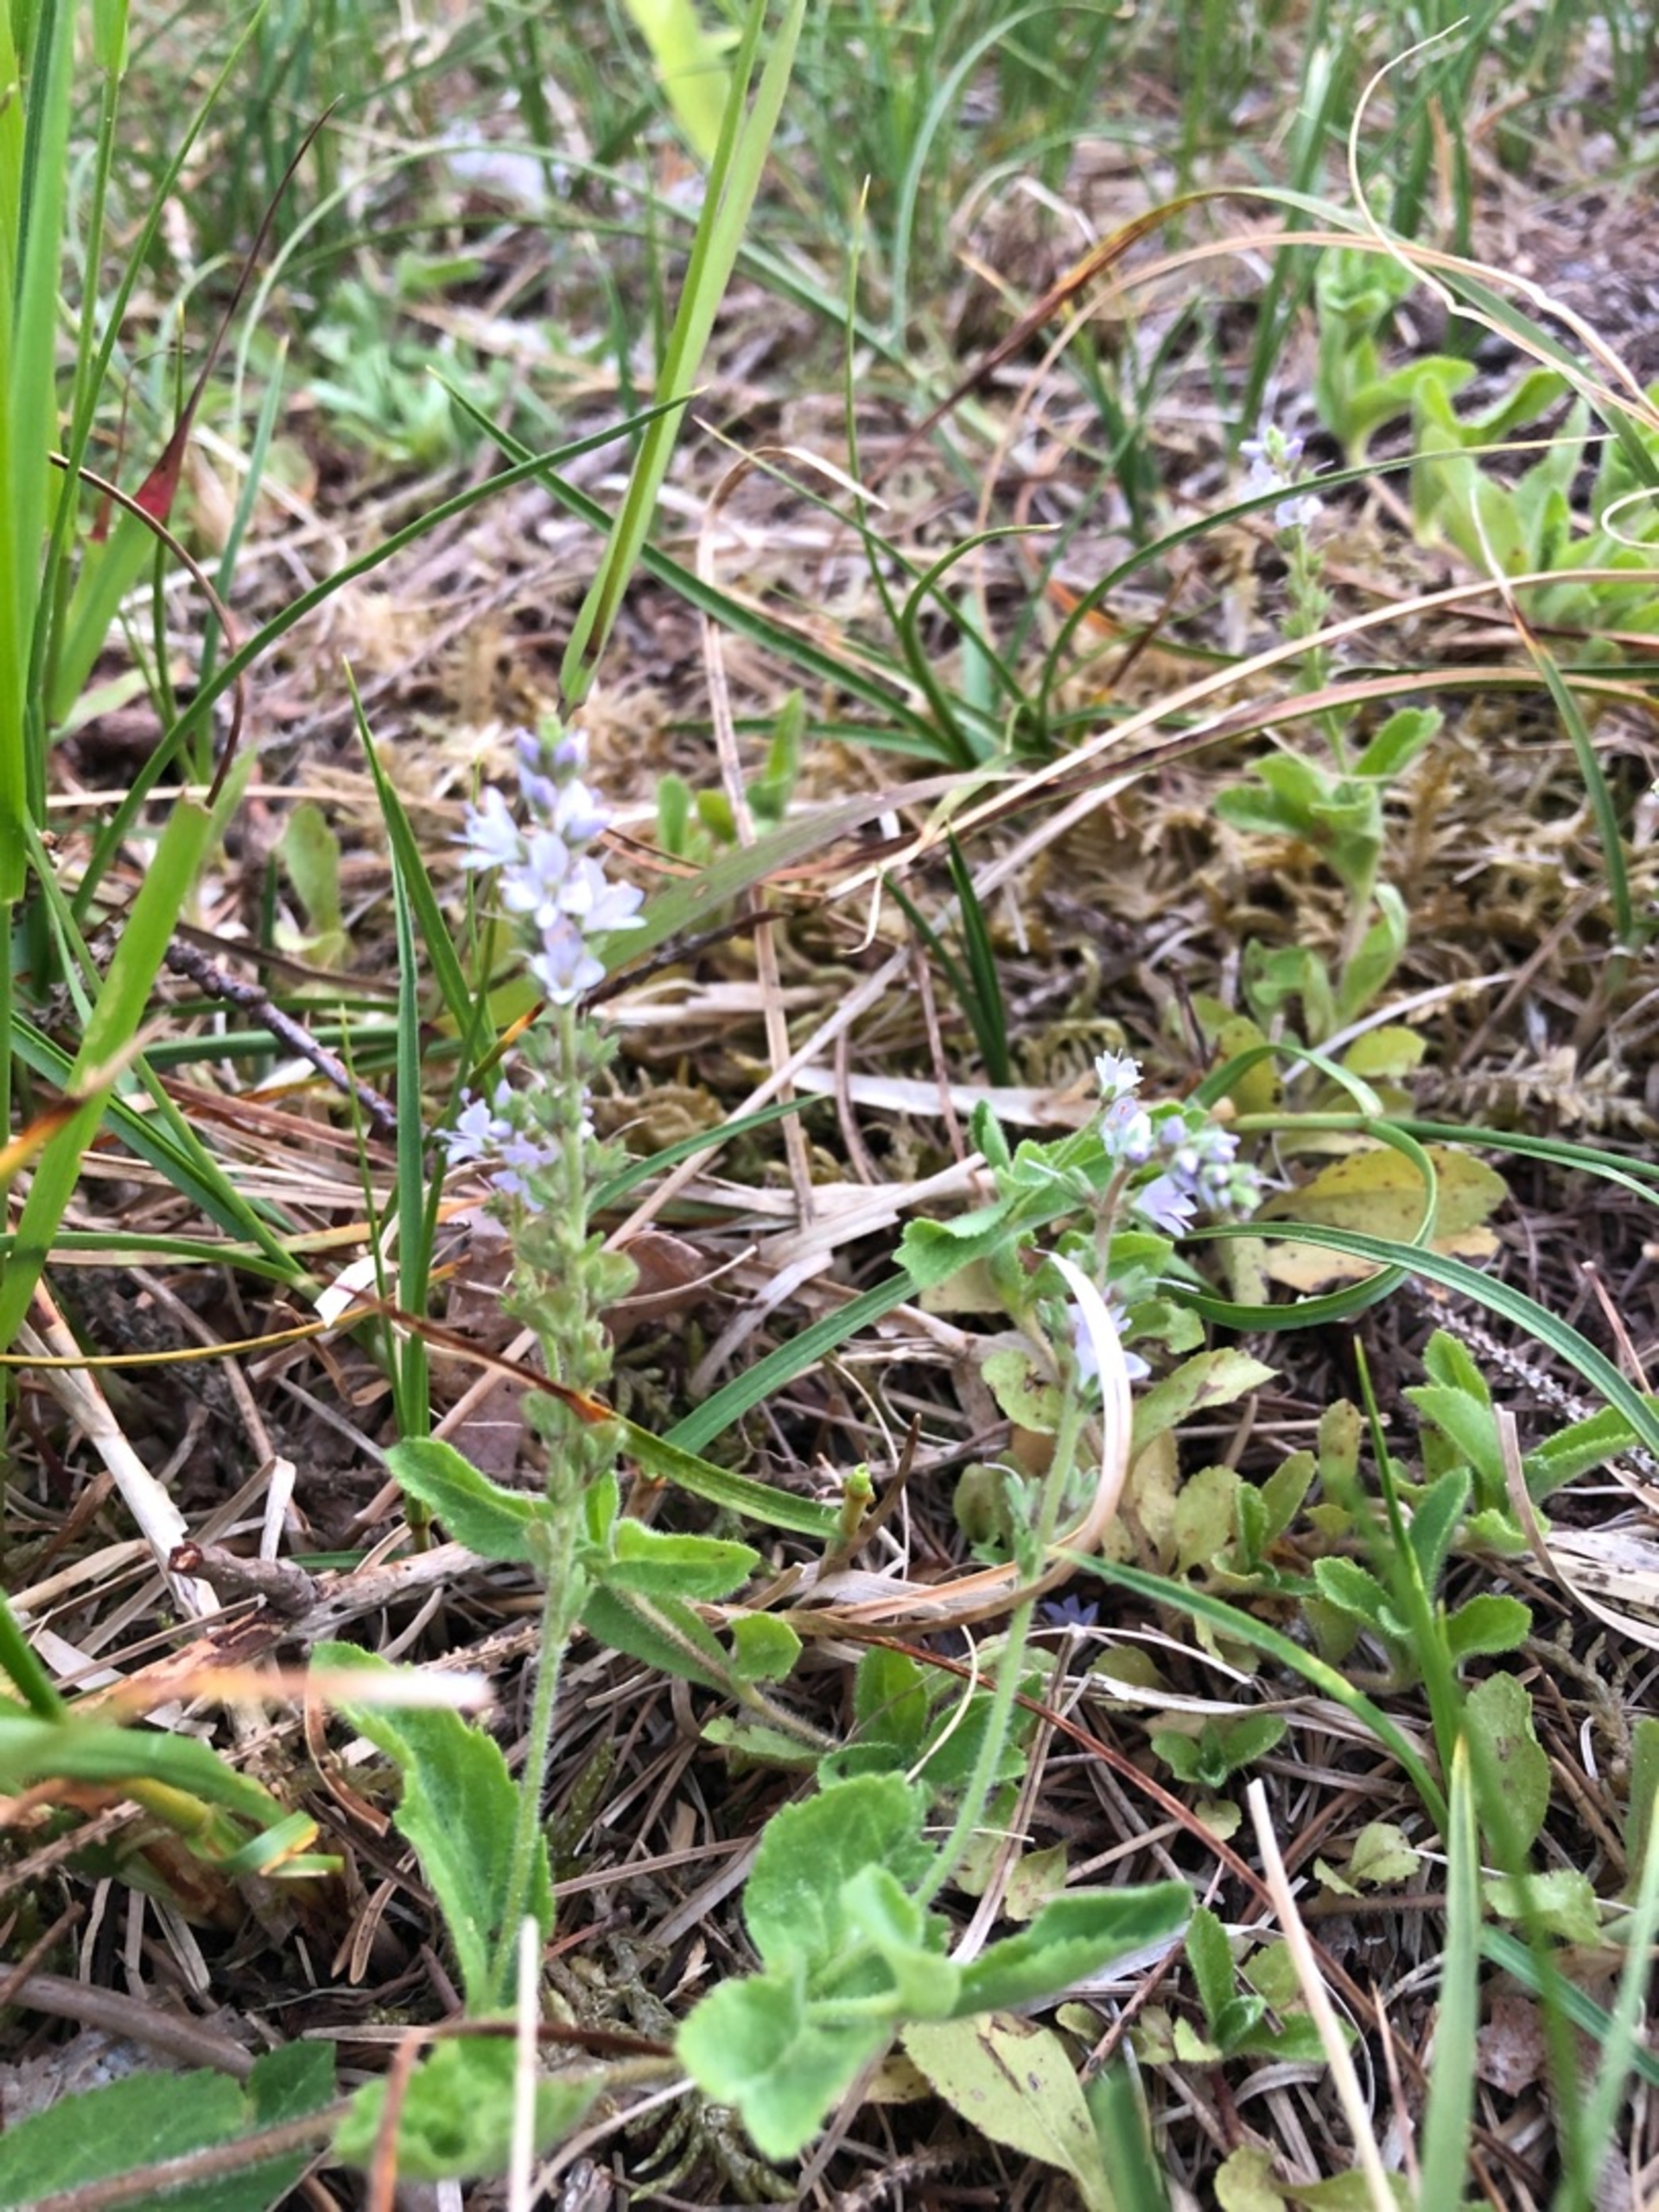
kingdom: Plantae
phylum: Tracheophyta
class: Magnoliopsida
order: Lamiales
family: Plantaginaceae
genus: Veronica
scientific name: Veronica officinalis
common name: Læge-ærenpris
